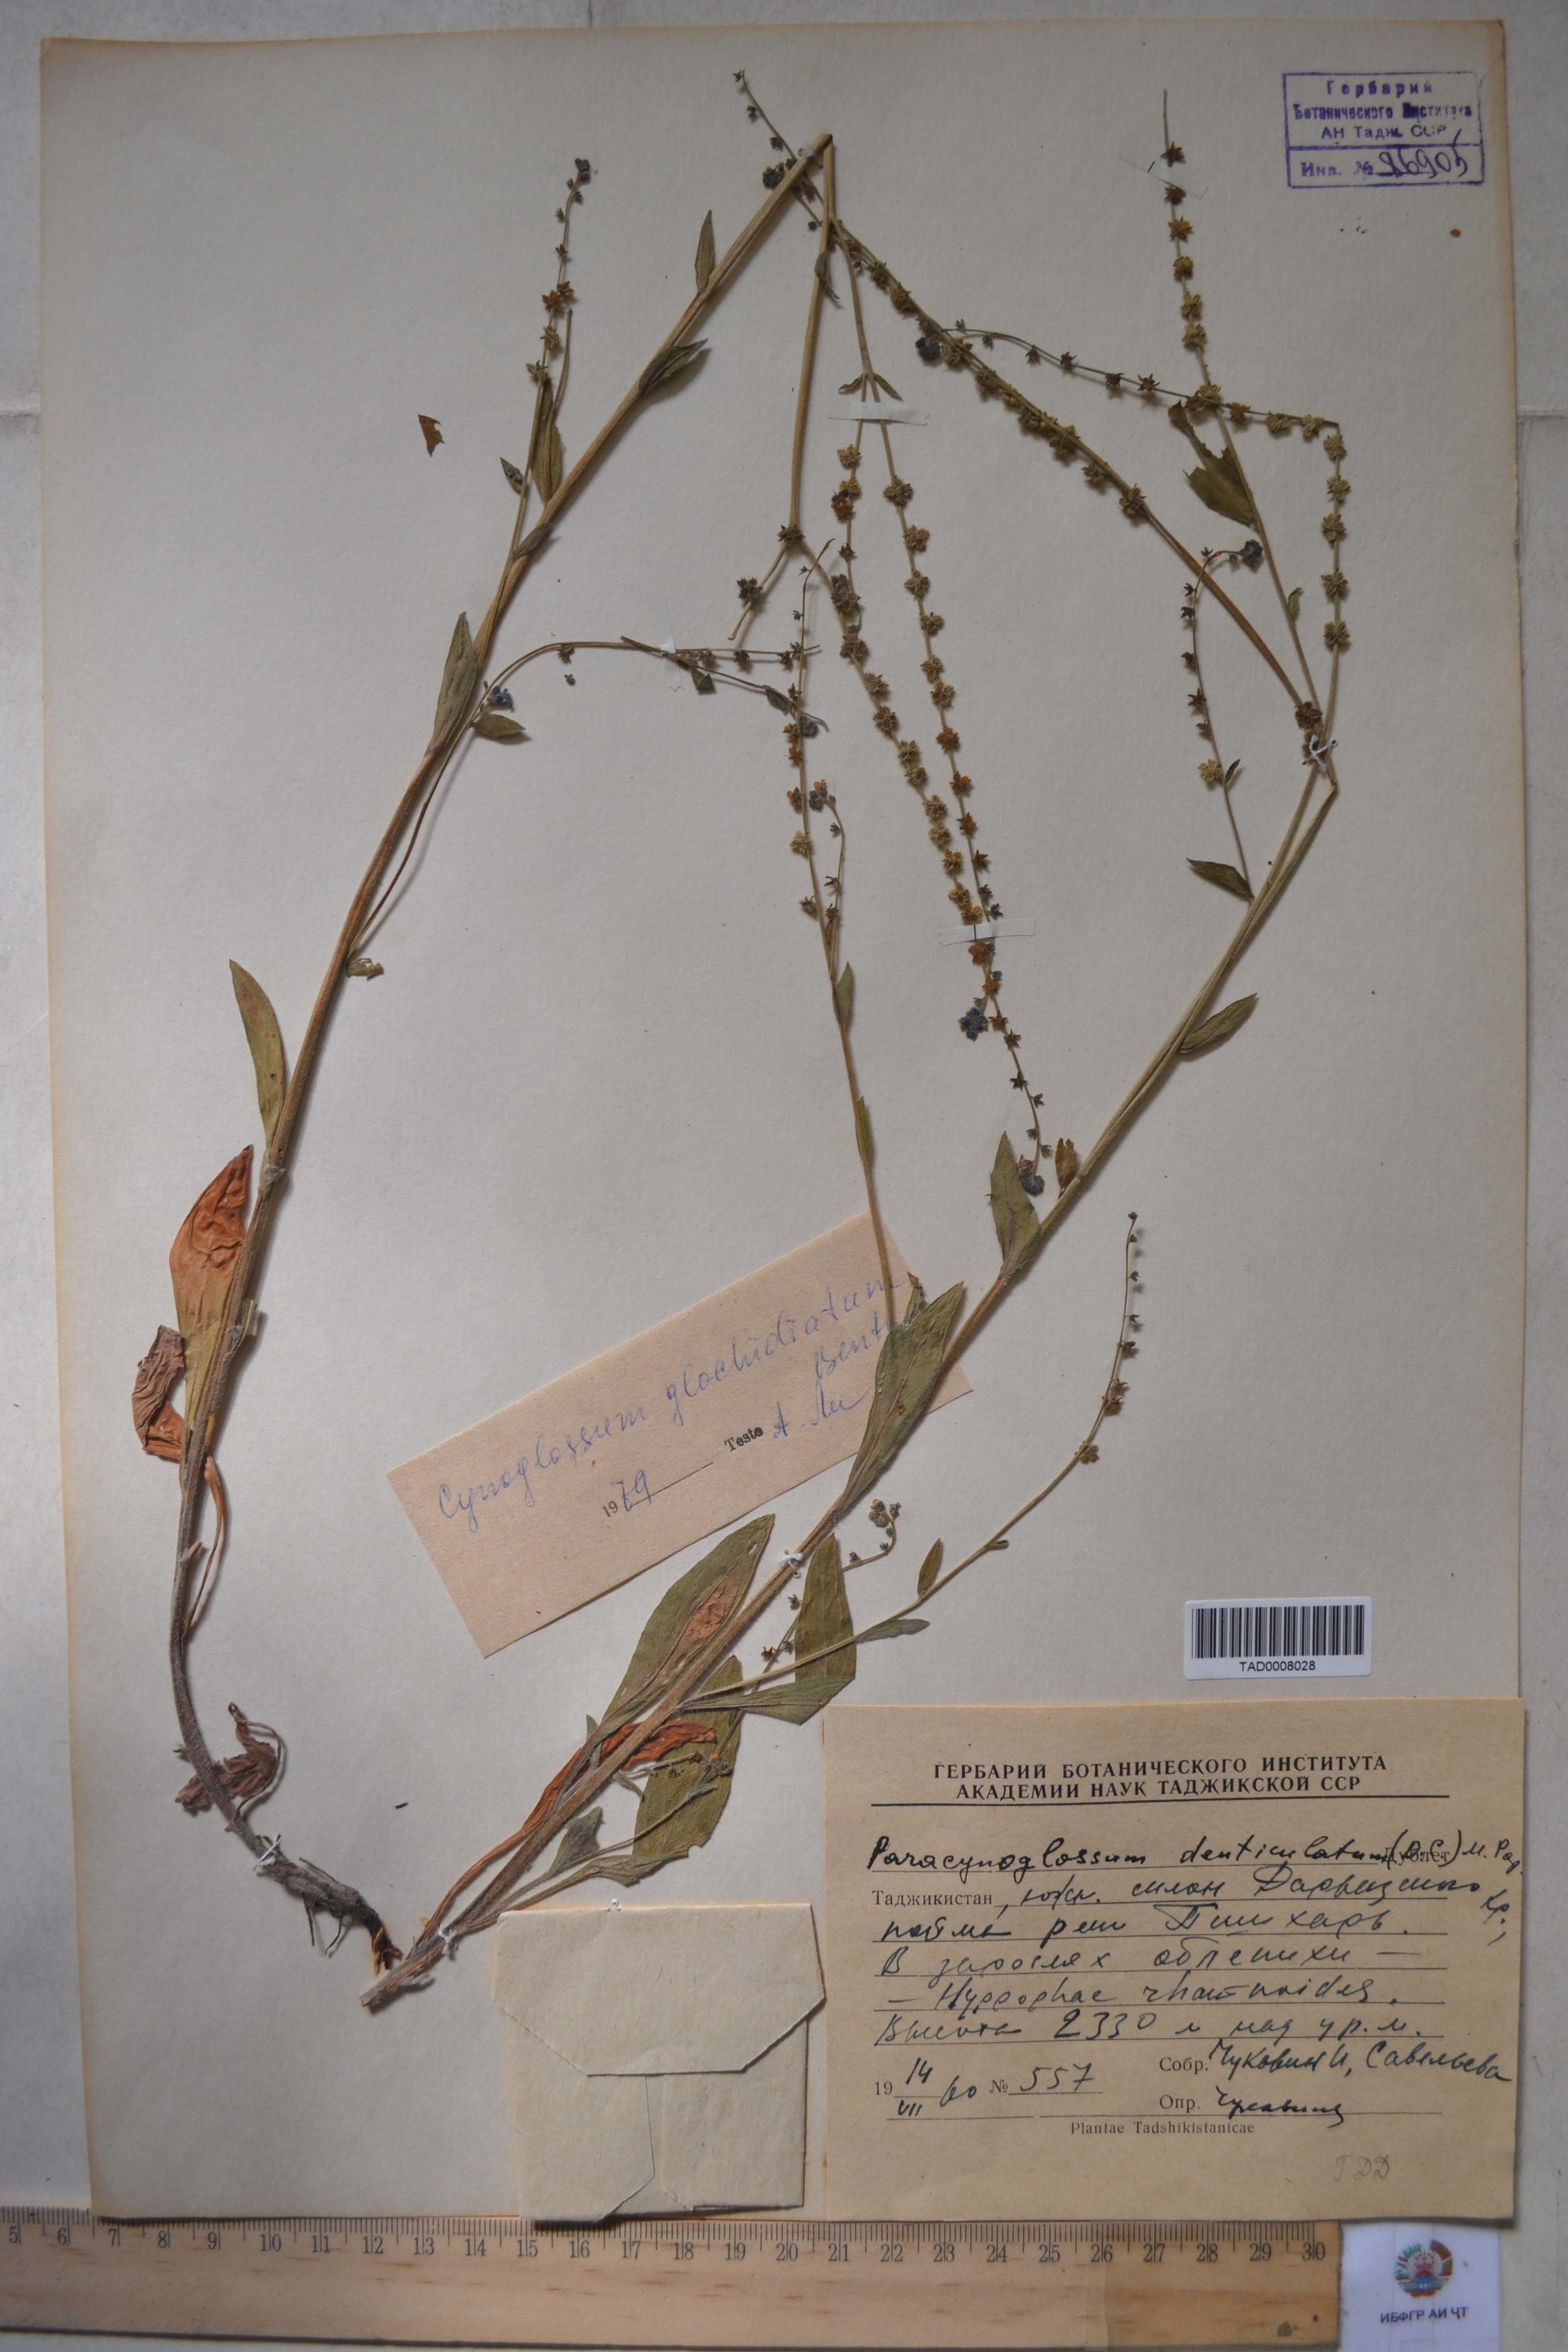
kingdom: Plantae
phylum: Tracheophyta
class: Magnoliopsida
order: Boraginales
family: Boraginaceae
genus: Paracynoglossum
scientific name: Paracynoglossum glochidiatum
